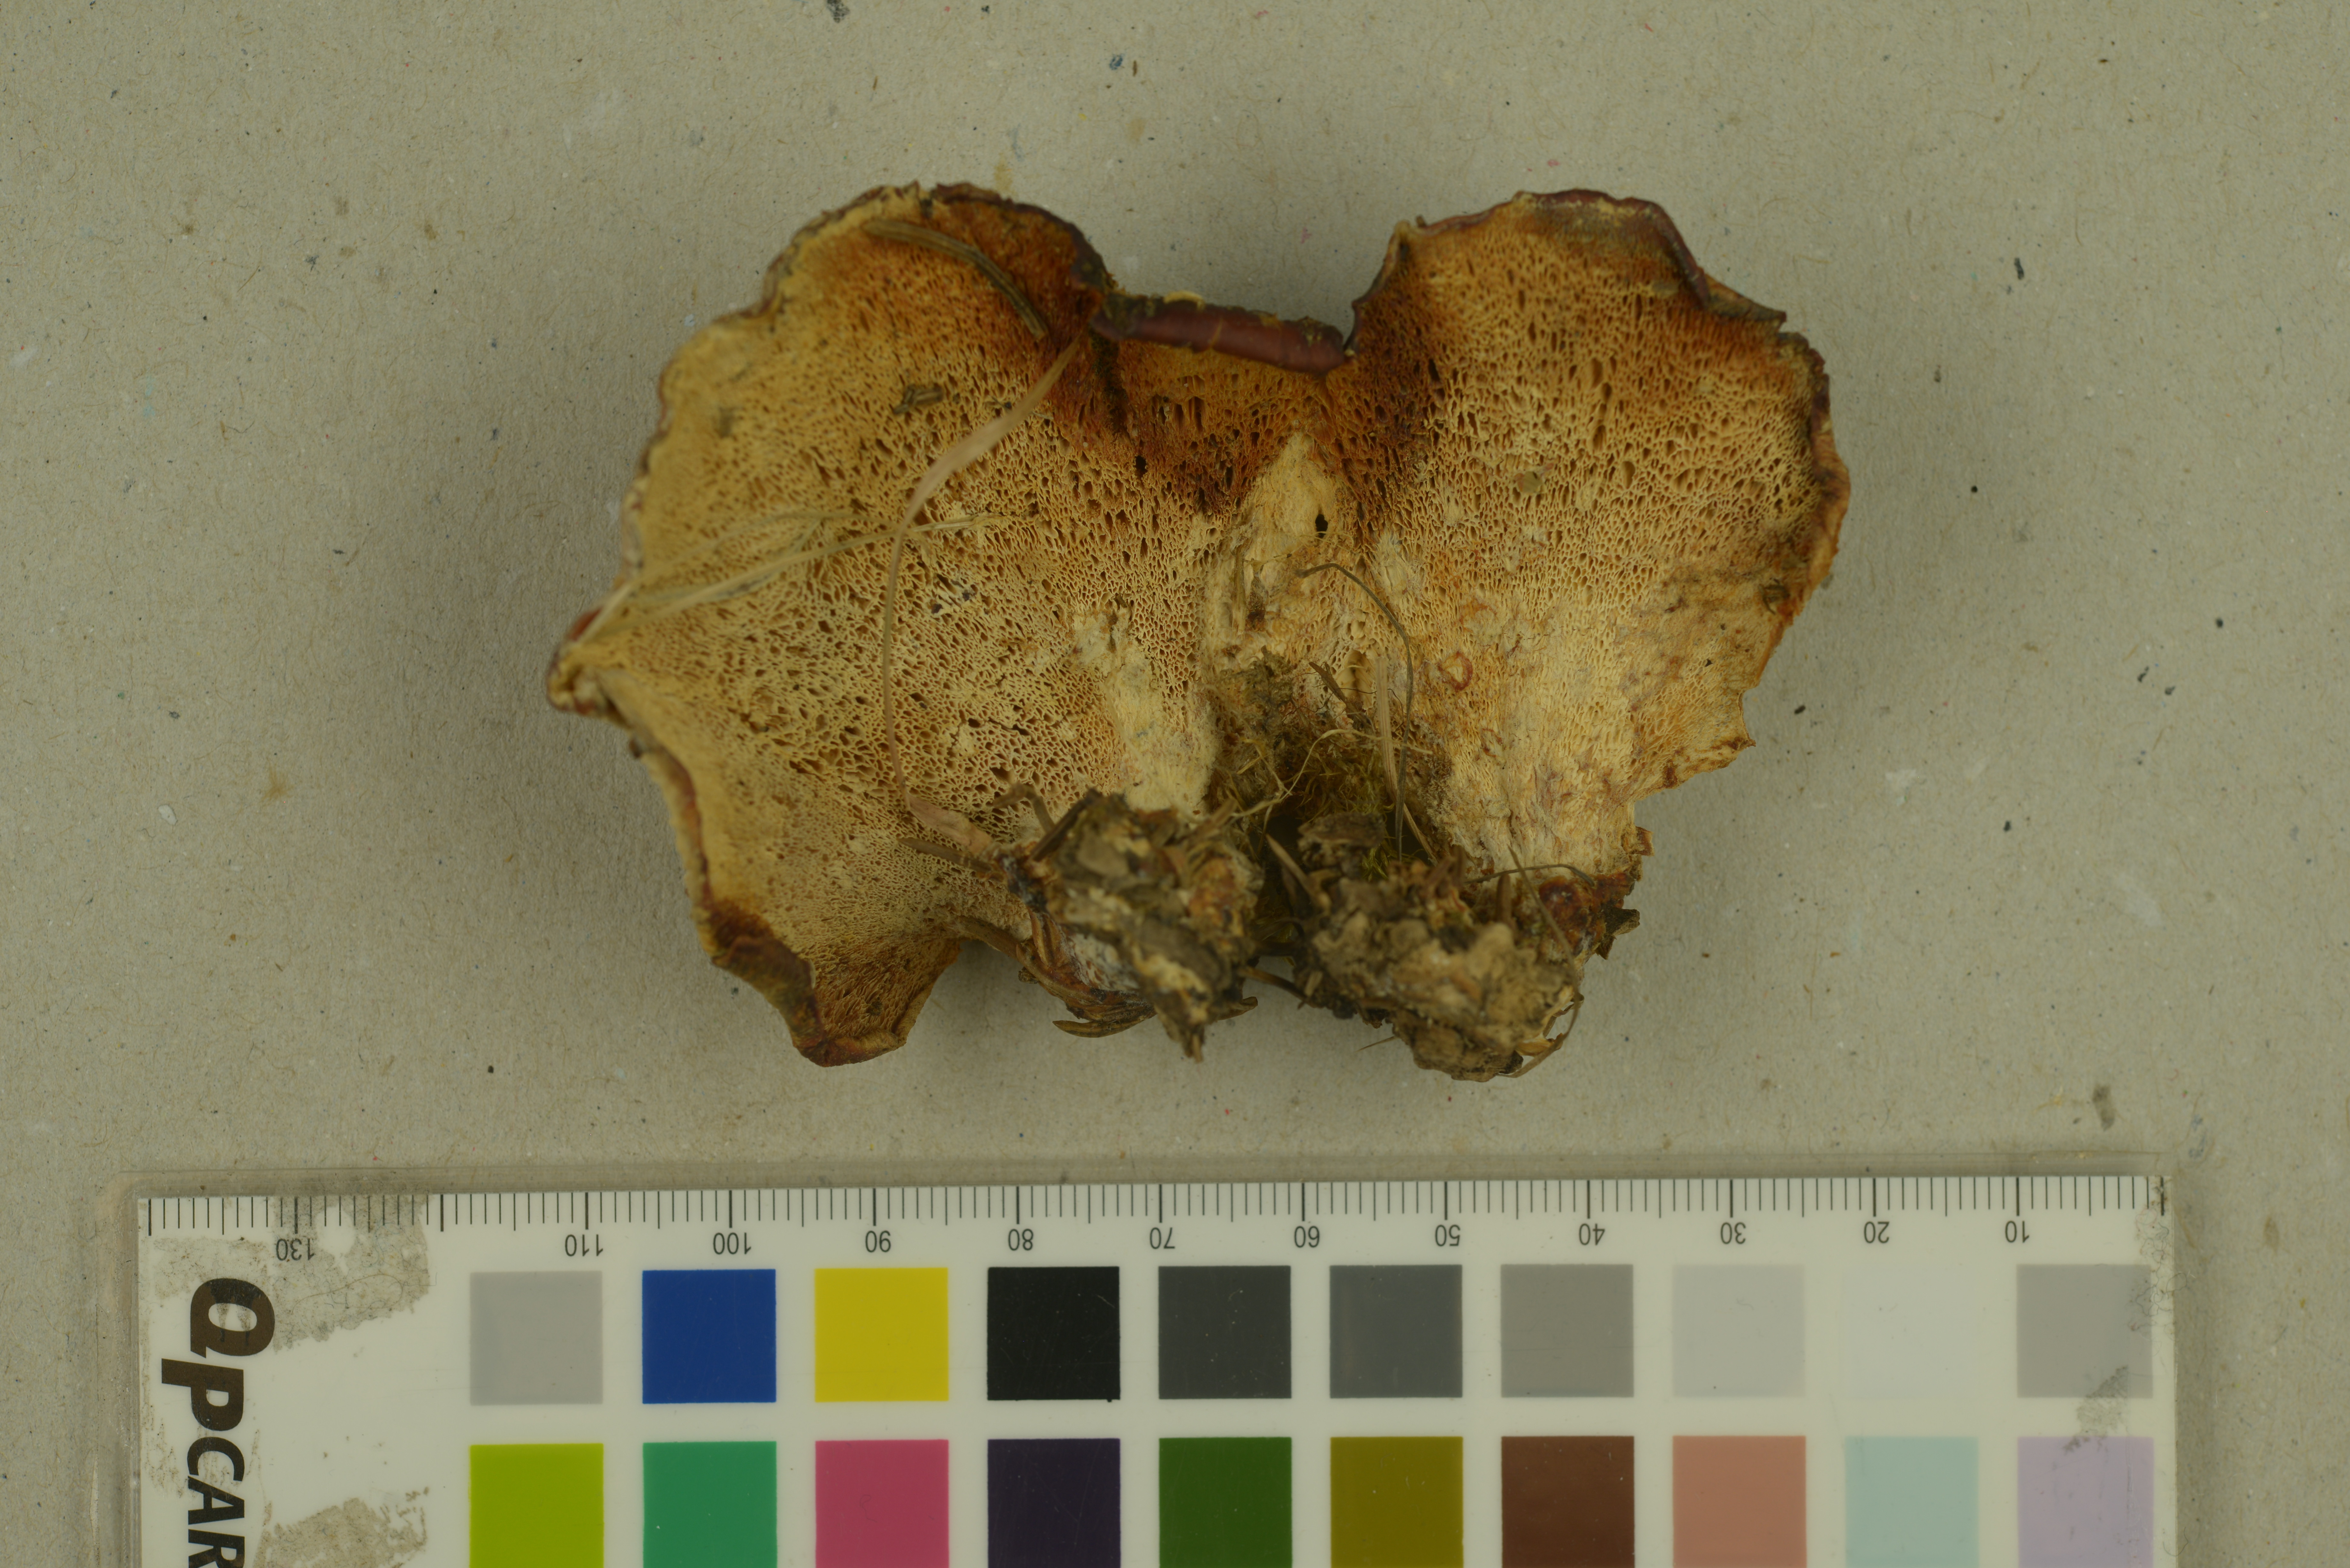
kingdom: Fungi
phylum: Basidiomycota
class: Agaricomycetes
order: Polyporales
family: Podoscyphaceae
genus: Abortiporus
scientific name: Abortiporus biennis
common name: Blushing rosette
